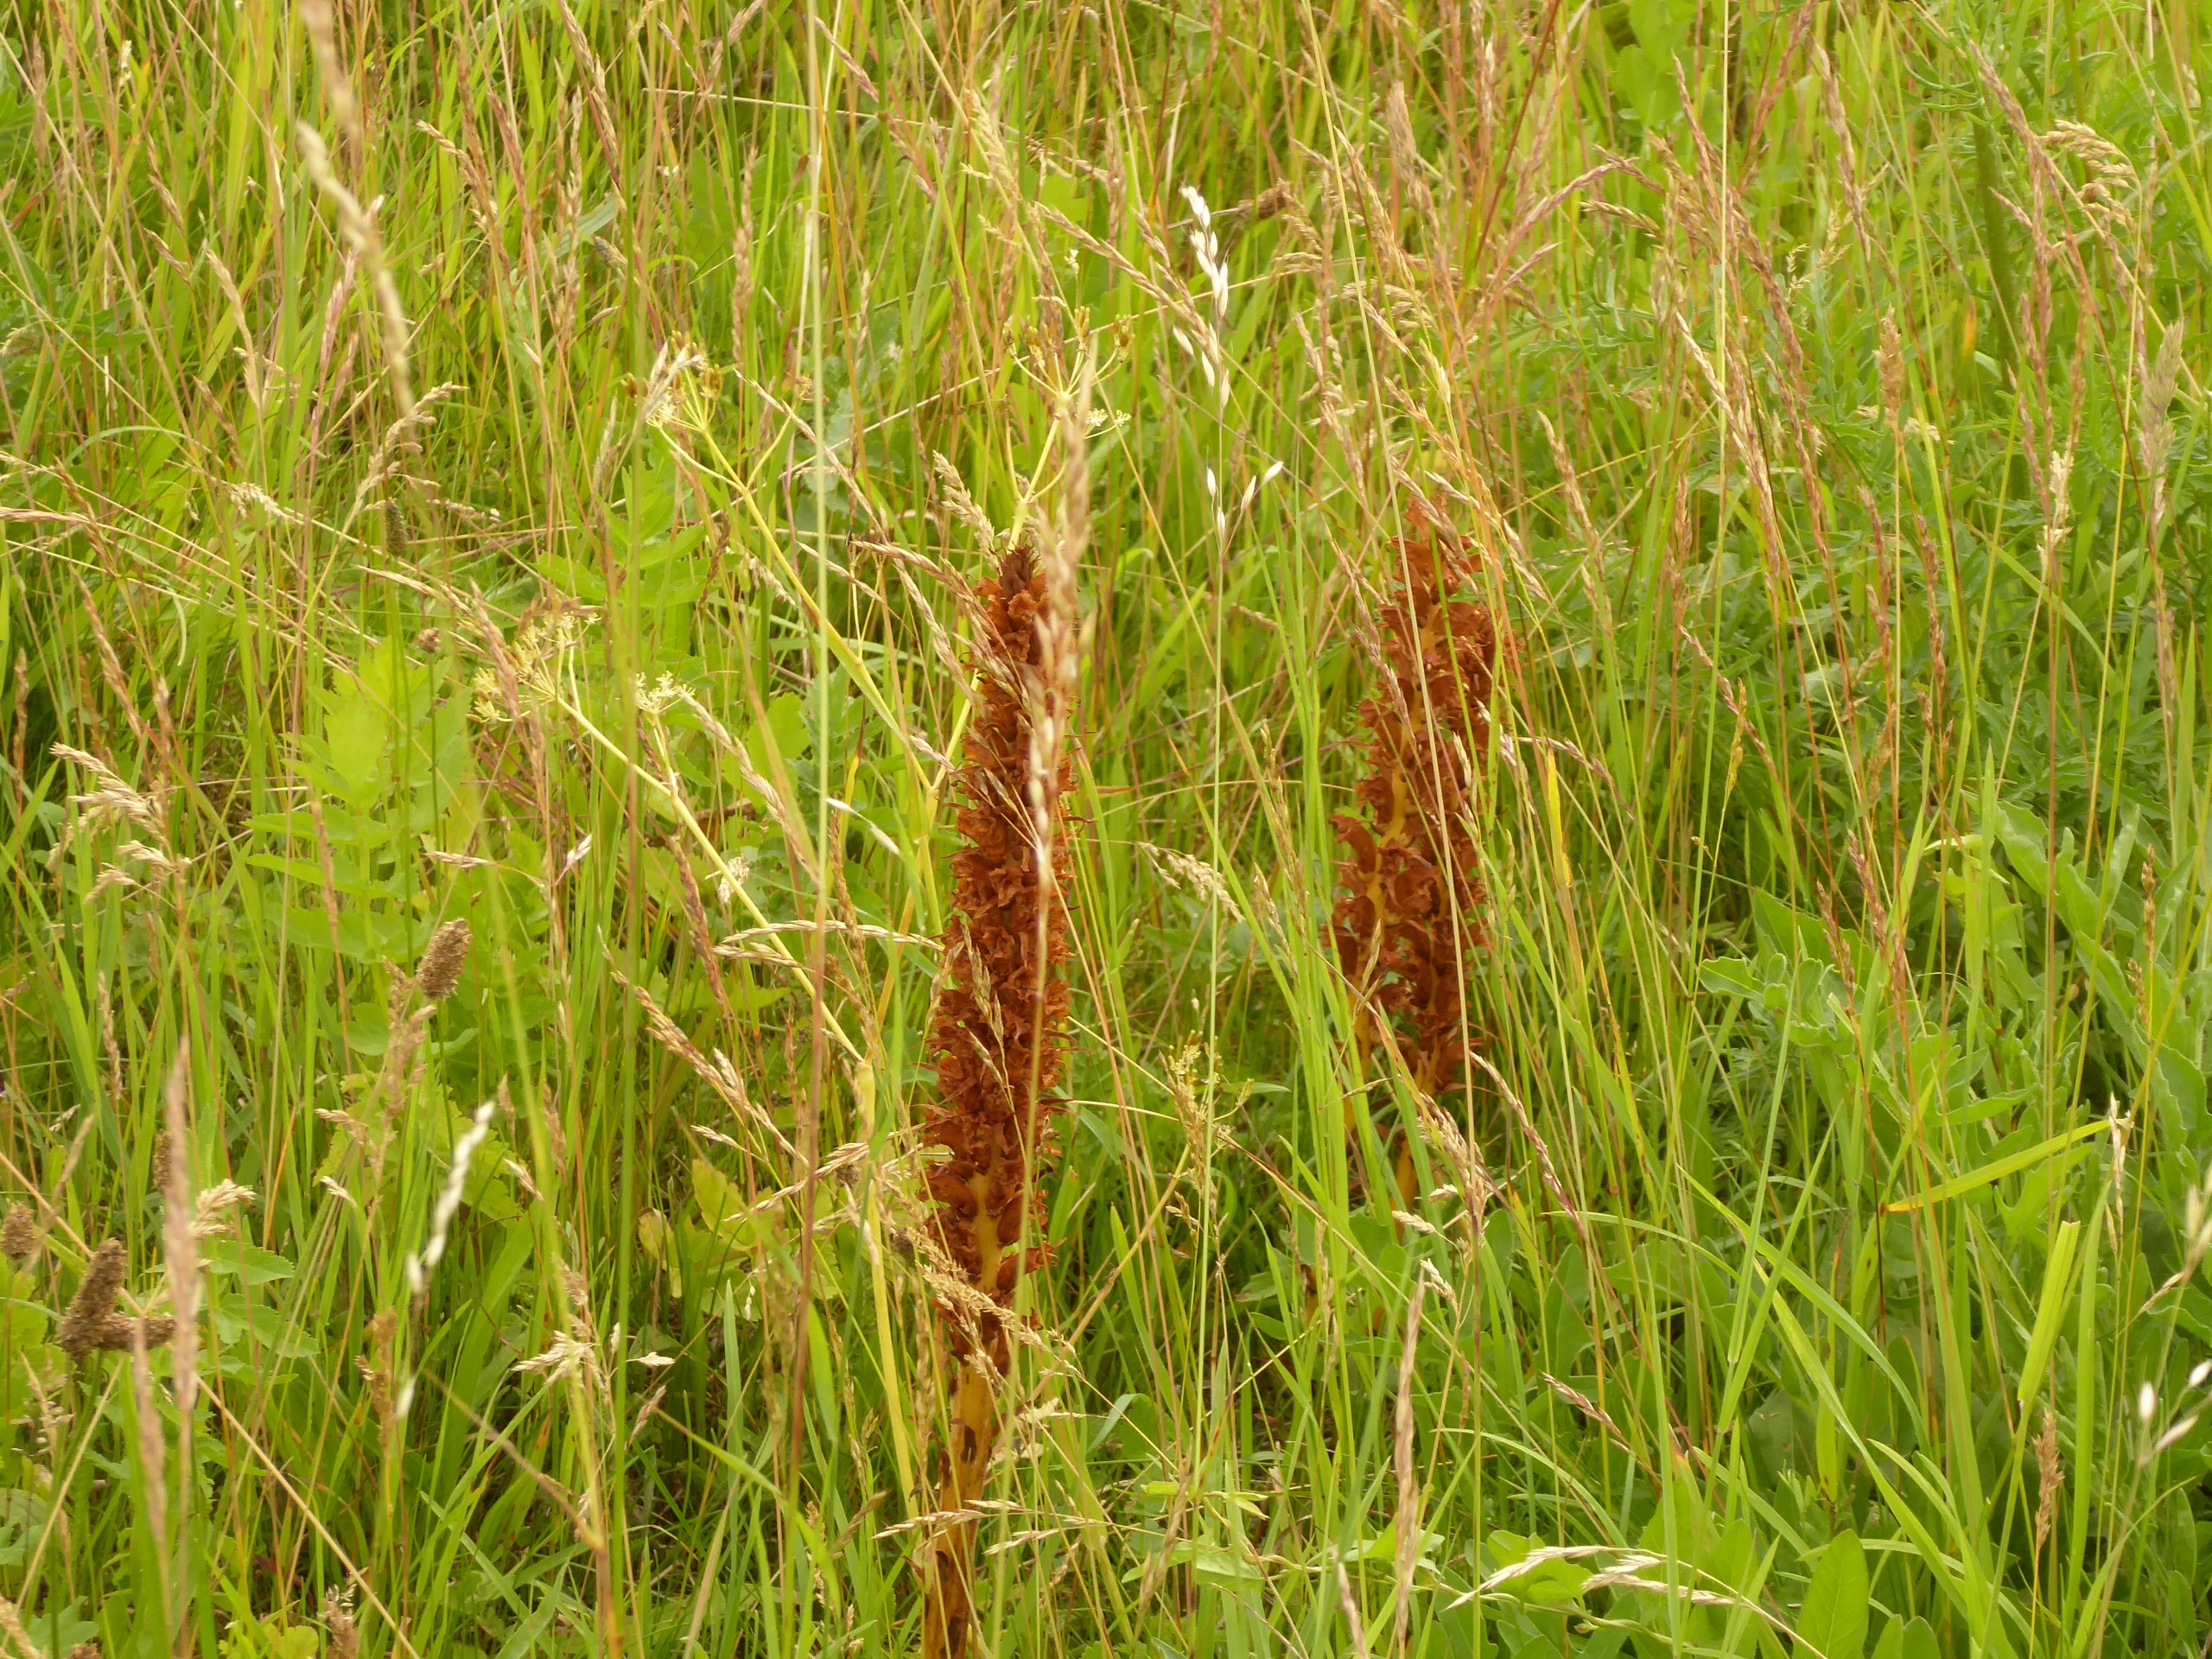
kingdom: Plantae
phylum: Tracheophyta
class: Magnoliopsida
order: Lamiales
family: Orobanchaceae
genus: Orobanche
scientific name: Orobanche elatior
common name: Stor gyvelkvæler
